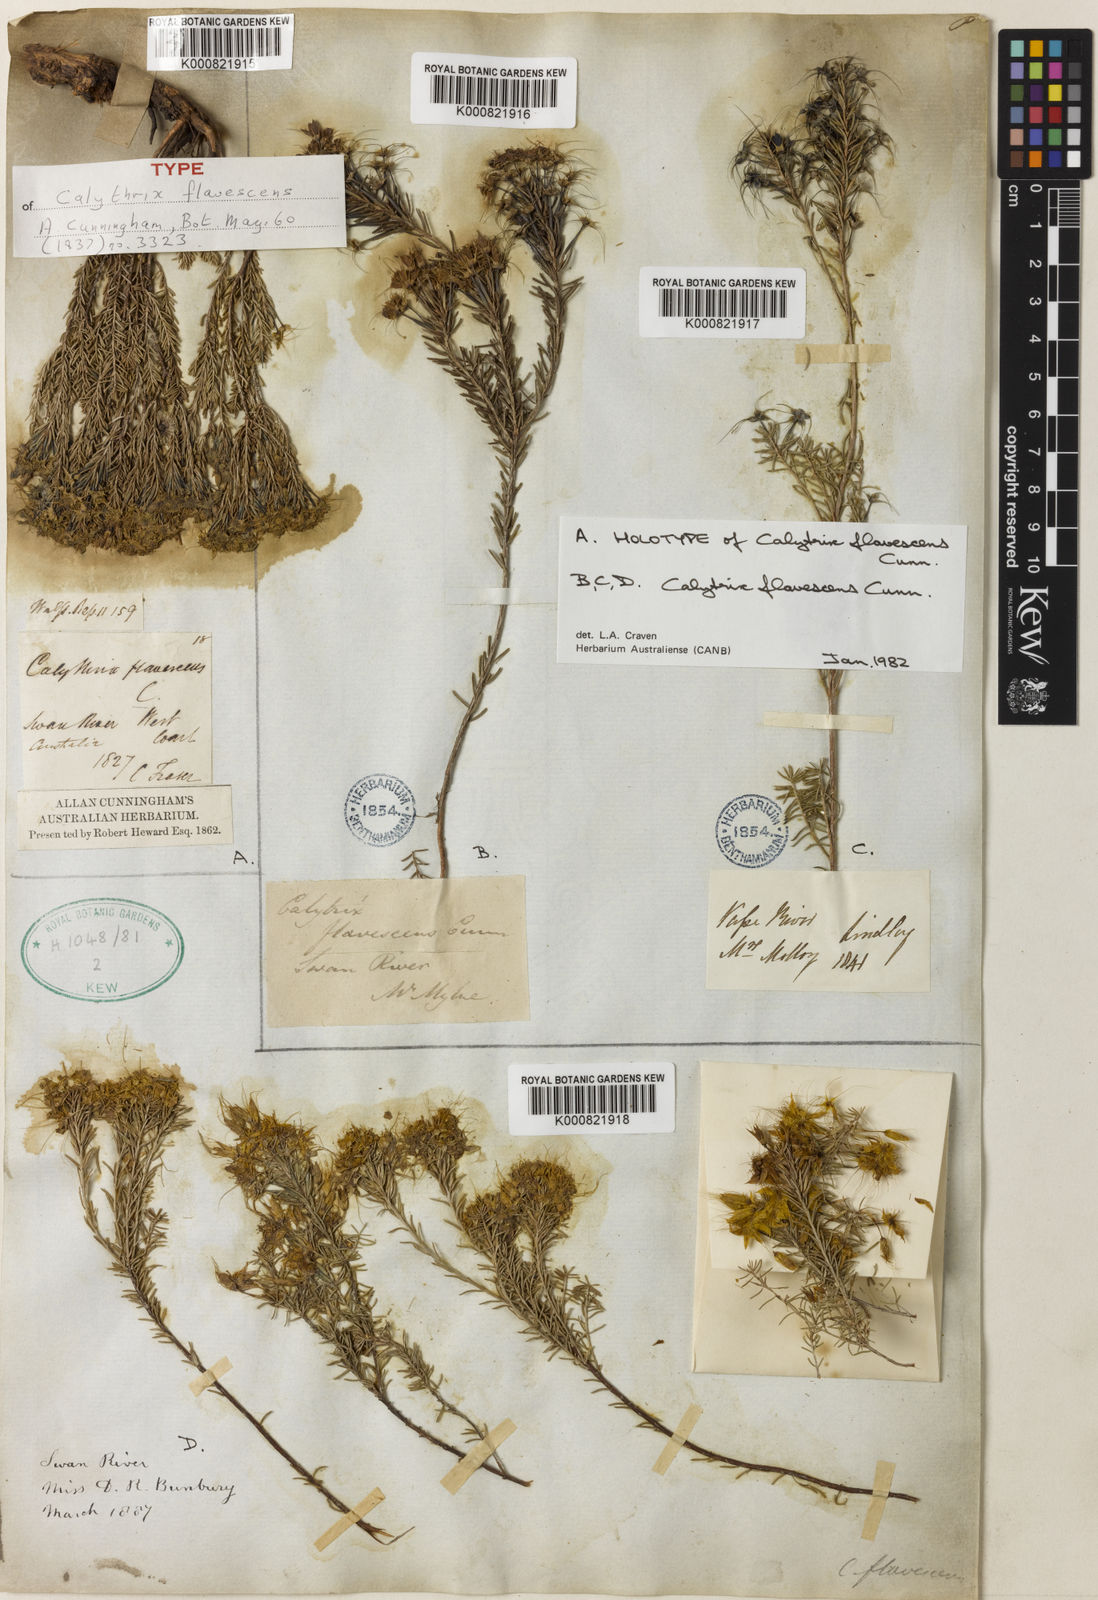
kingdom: Plantae
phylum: Tracheophyta
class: Magnoliopsida
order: Myrtales
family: Myrtaceae
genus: Calytrix
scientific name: Calytrix flavescens
